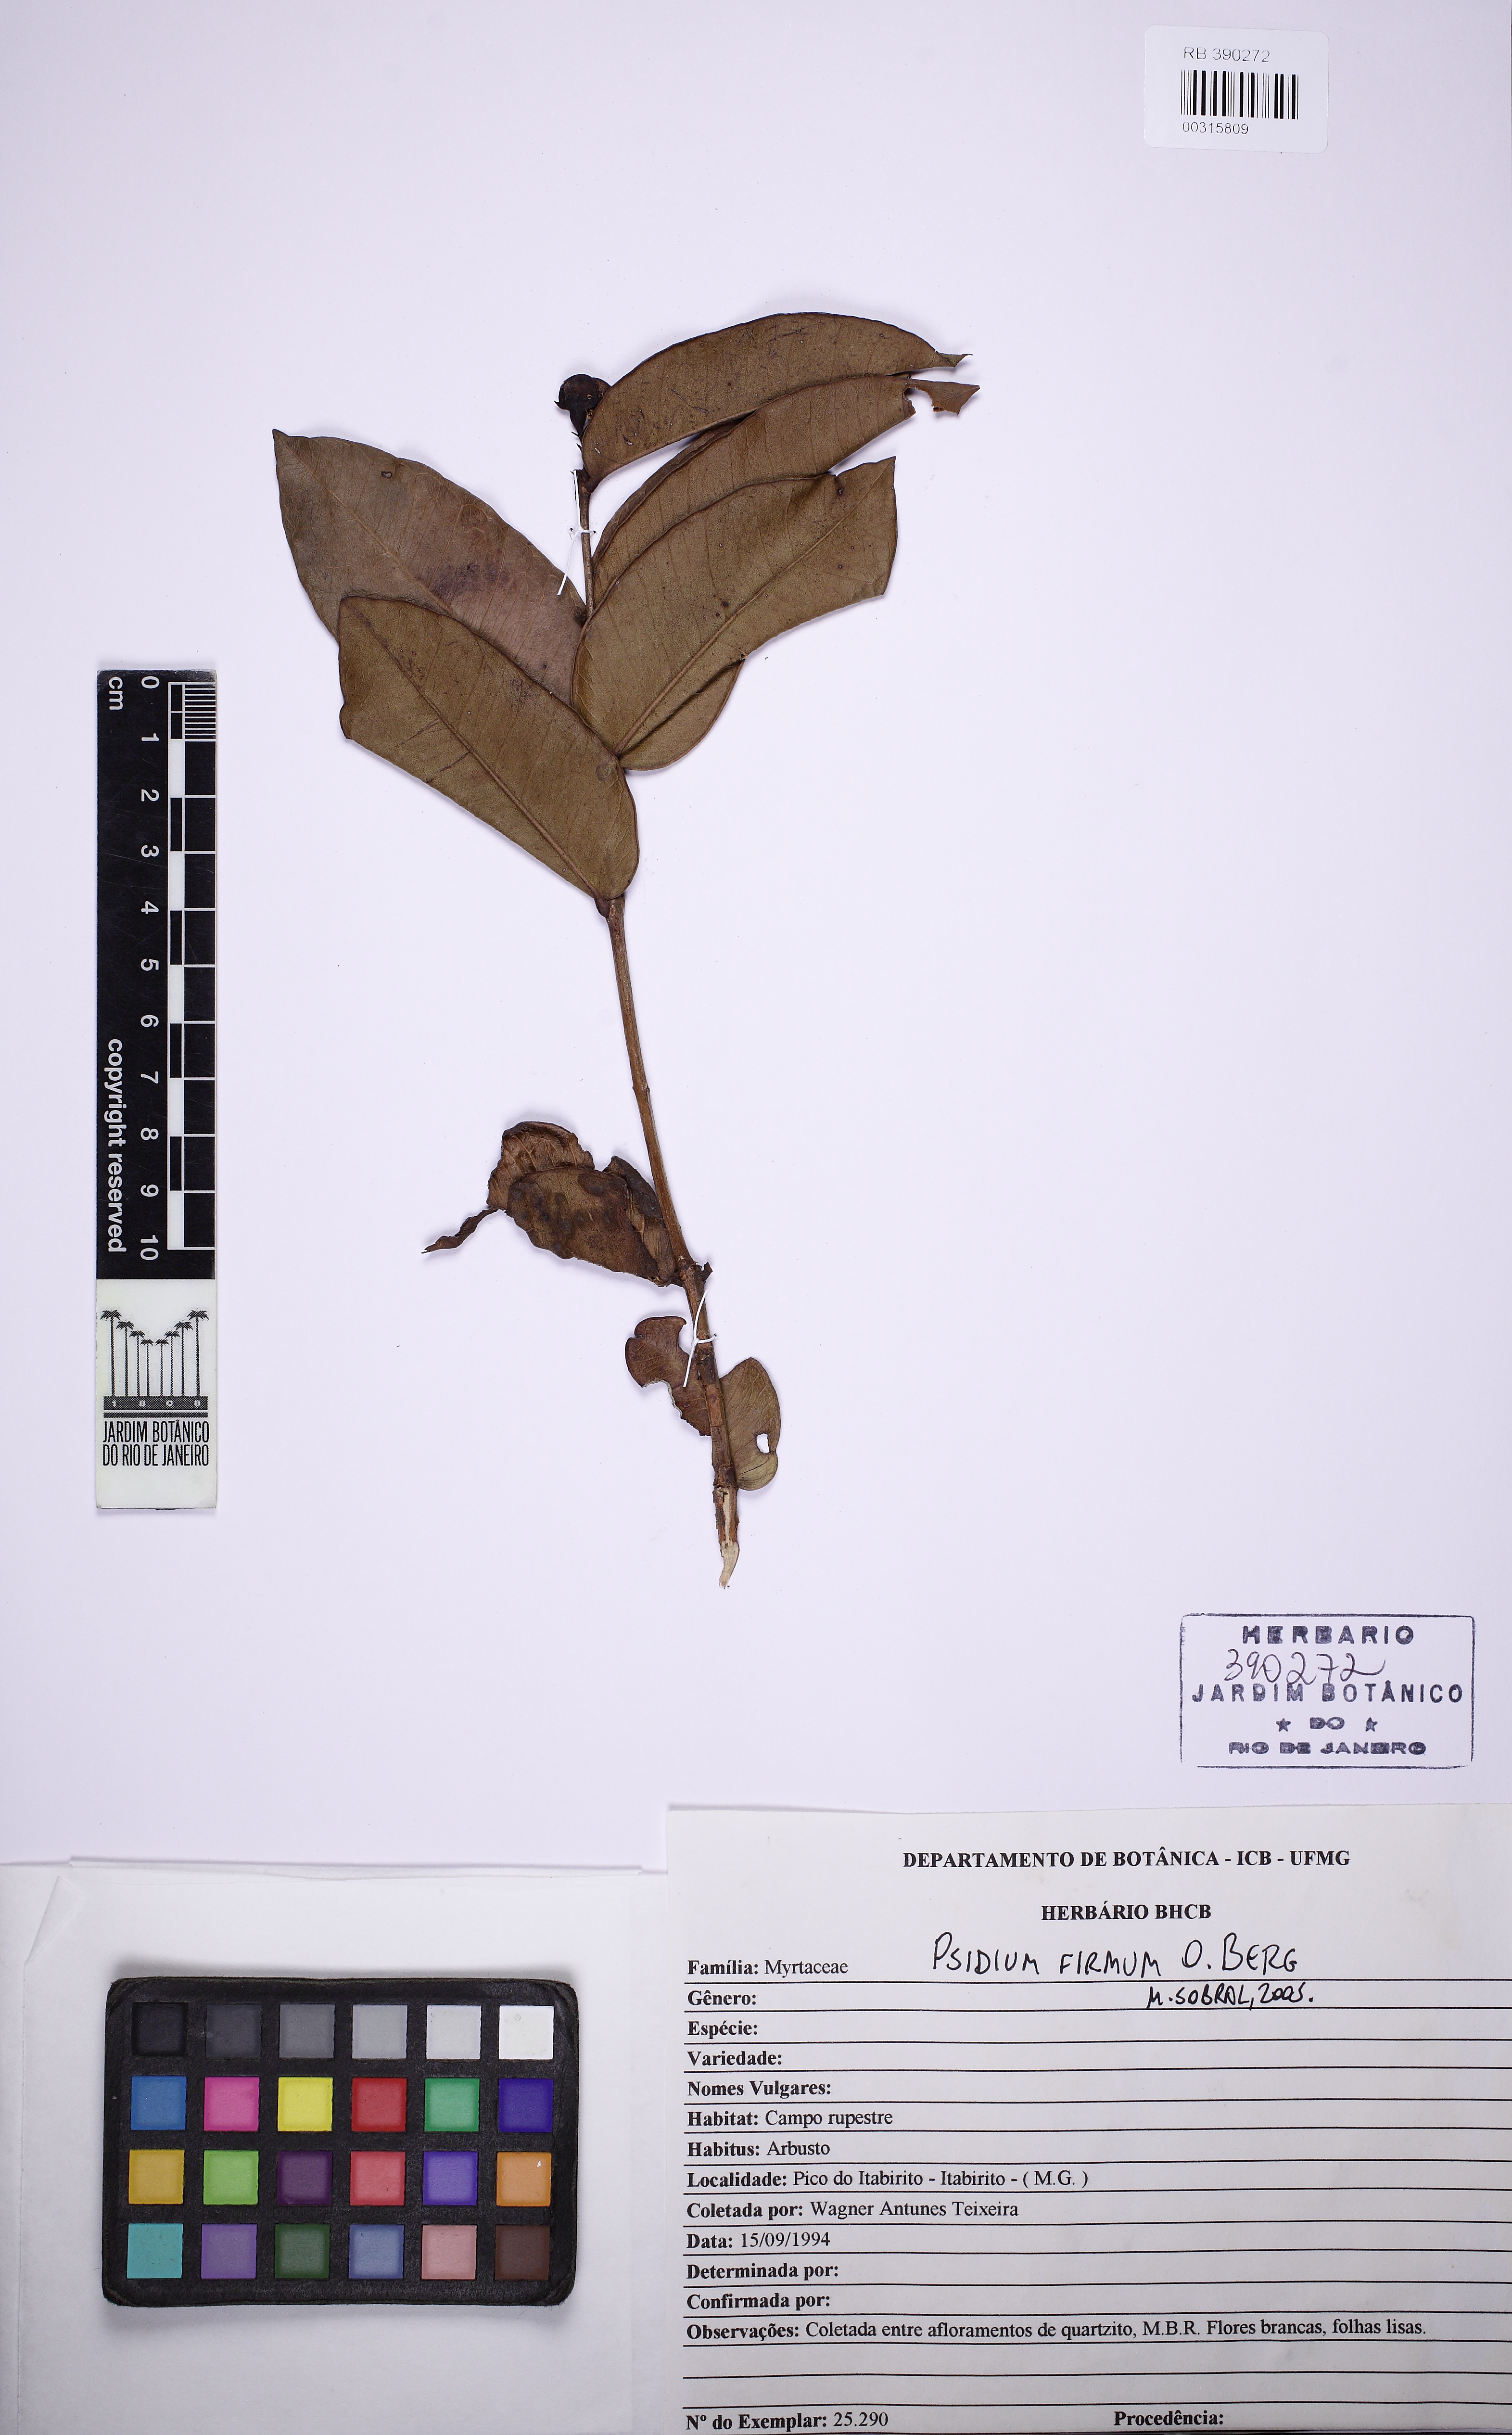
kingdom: Plantae
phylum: Tracheophyta
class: Magnoliopsida
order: Myrtales
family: Myrtaceae
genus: Psidium
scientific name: Psidium firmum
